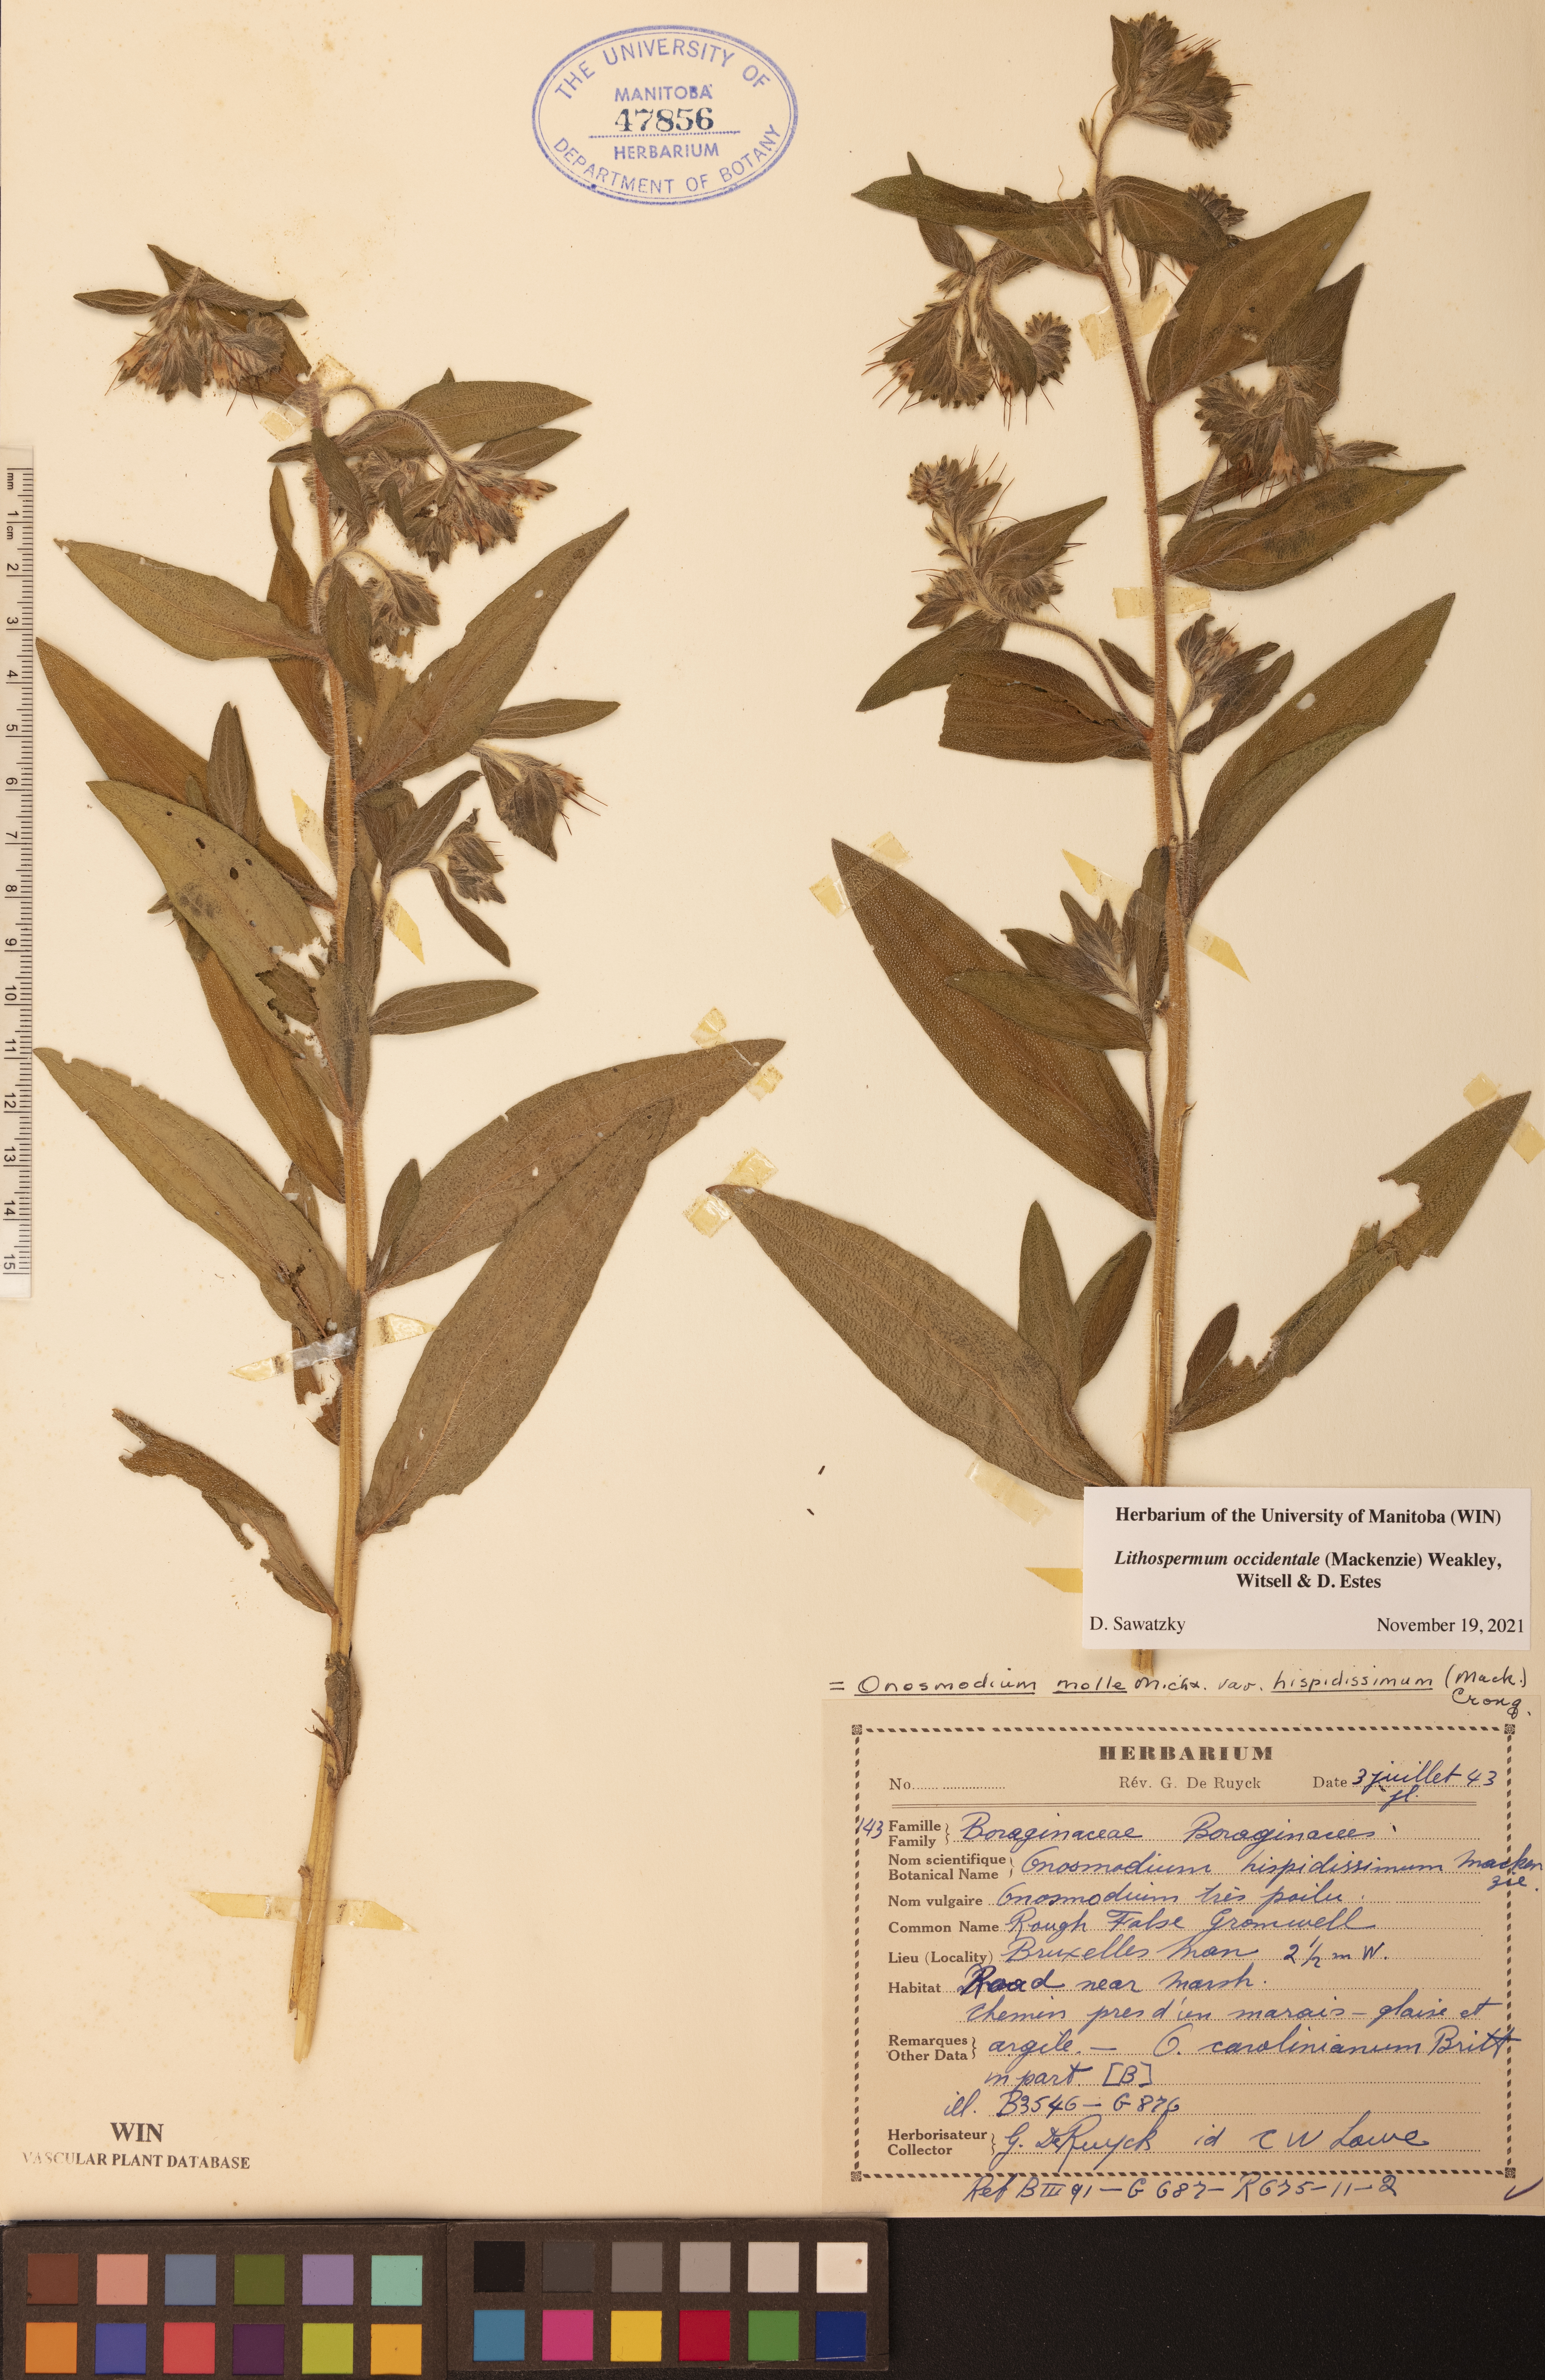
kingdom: Plantae
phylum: Tracheophyta
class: Magnoliopsida
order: Boraginales
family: Boraginaceae
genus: Lithospermum
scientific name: Lithospermum occidentale
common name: Western false gromwell
